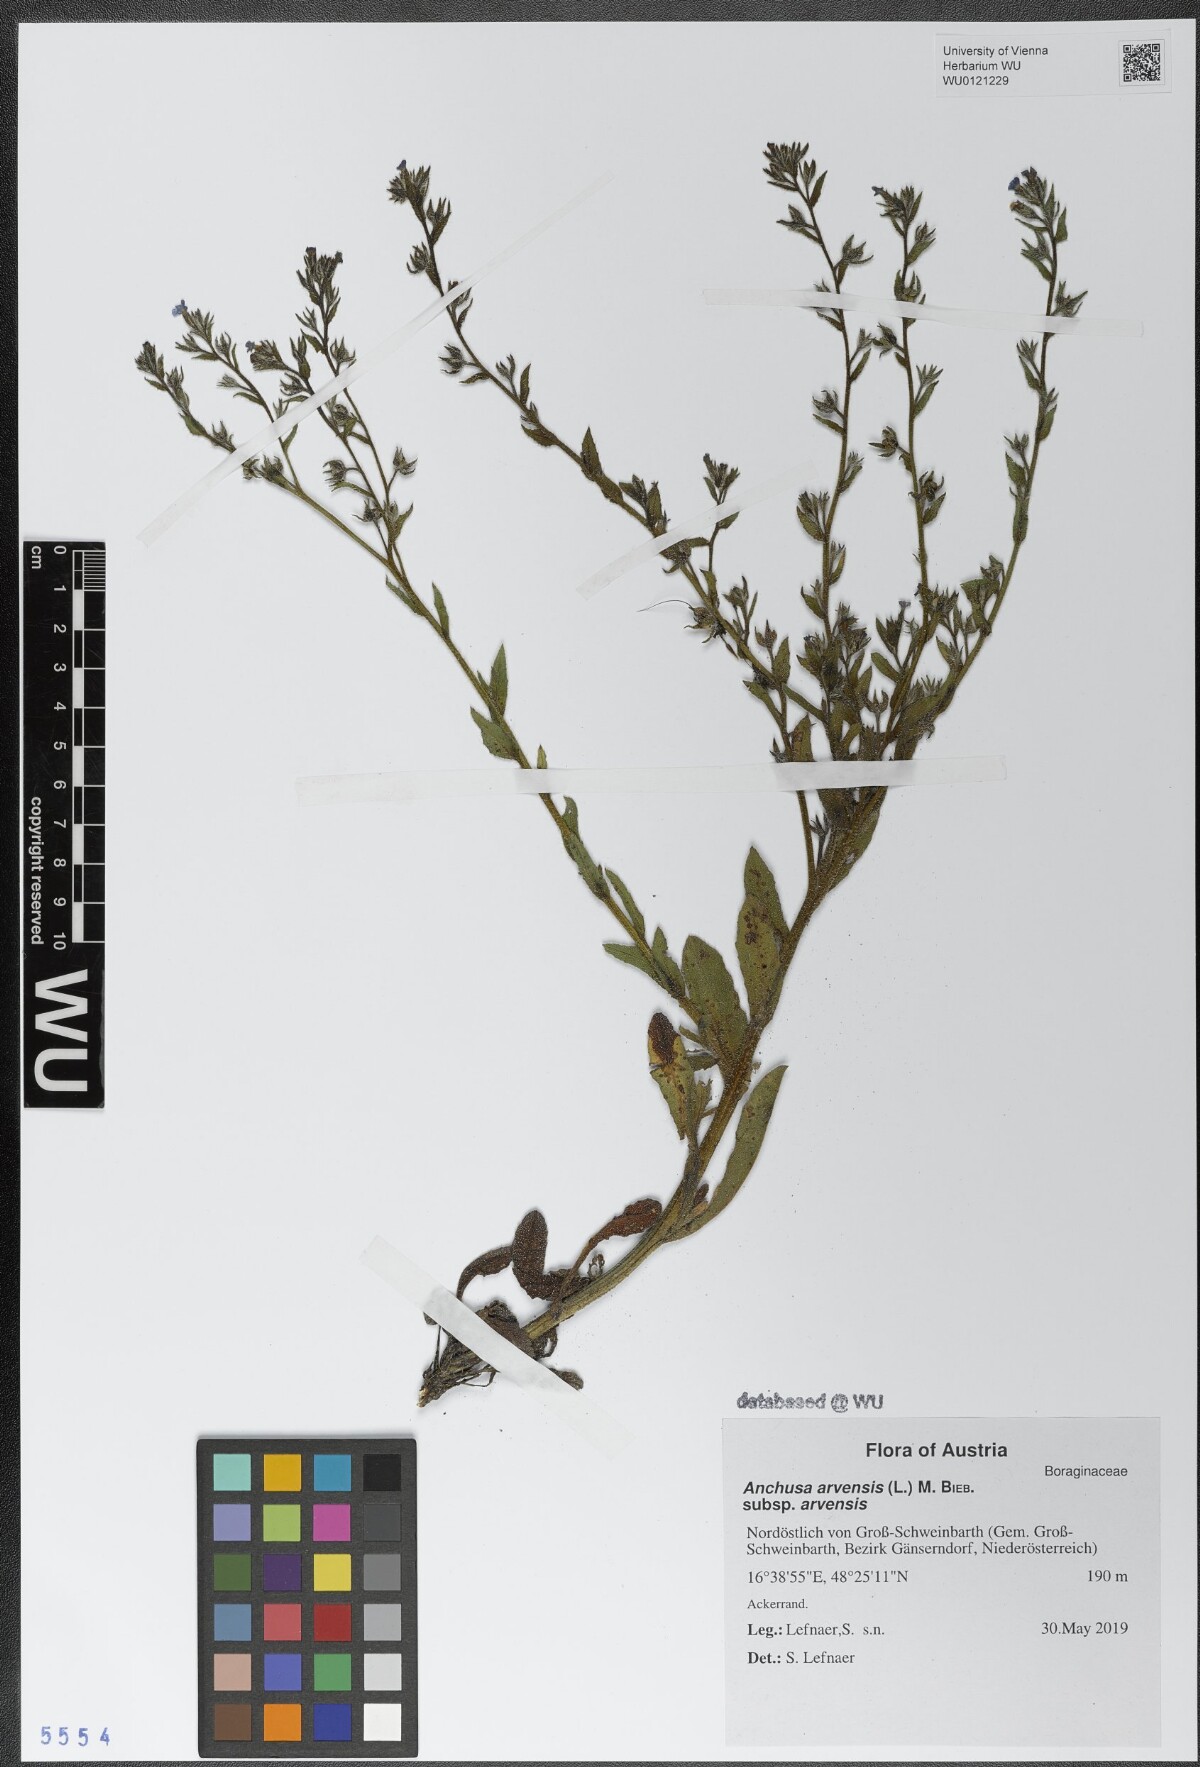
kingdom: Plantae
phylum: Tracheophyta
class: Magnoliopsida
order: Boraginales
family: Boraginaceae
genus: Lycopsis
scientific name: Lycopsis arvensis
